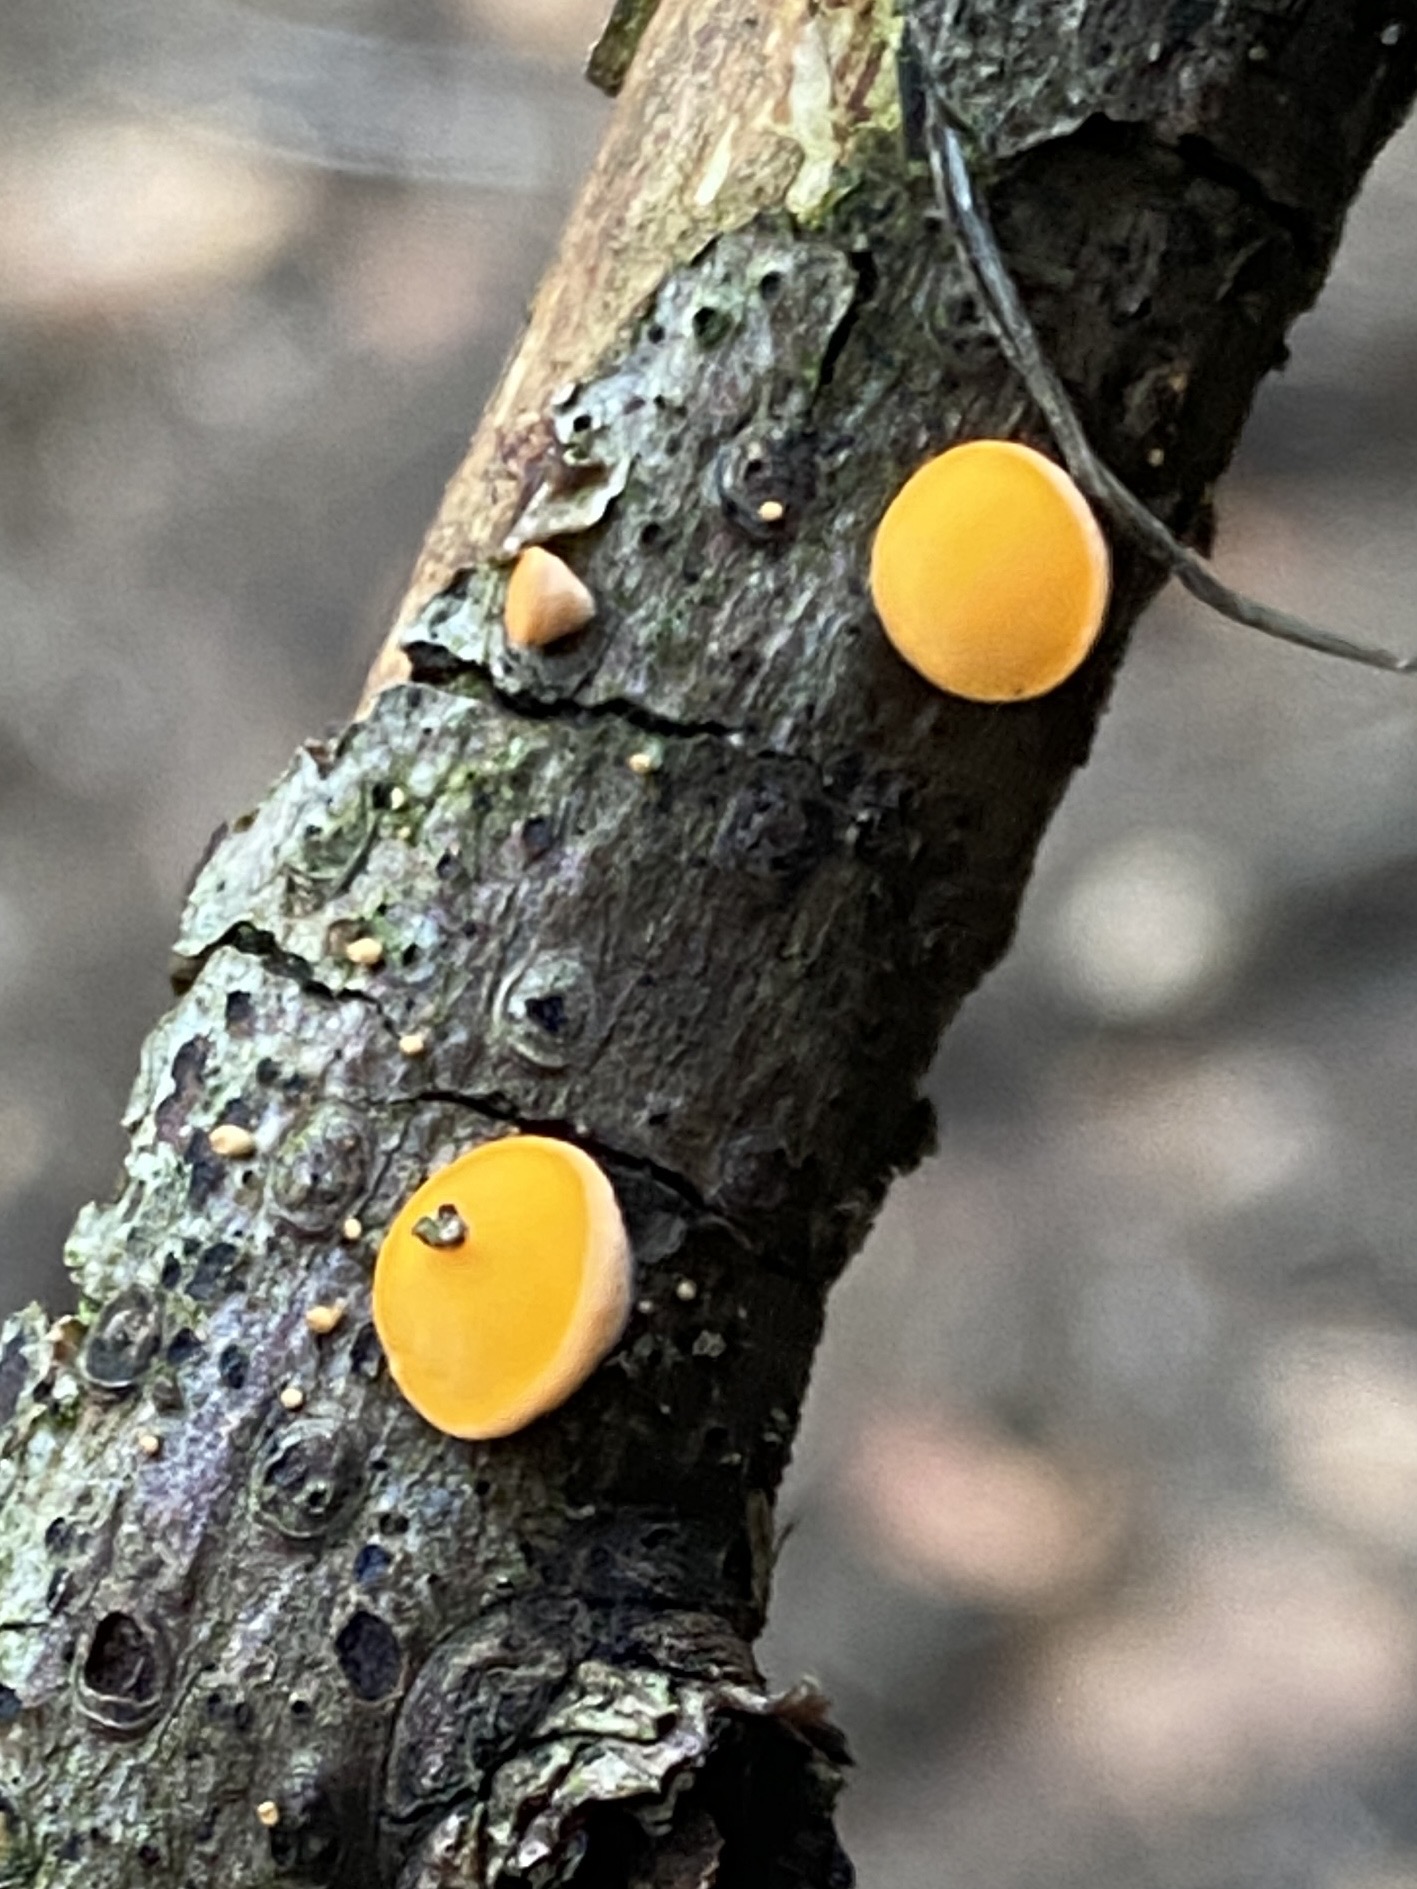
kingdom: Fungi
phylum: Ascomycota
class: Pezizomycetes
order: Pezizales
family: Sarcoscyphaceae
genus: Pithya
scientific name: Pithya vulgaris
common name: stor dukatbæger
